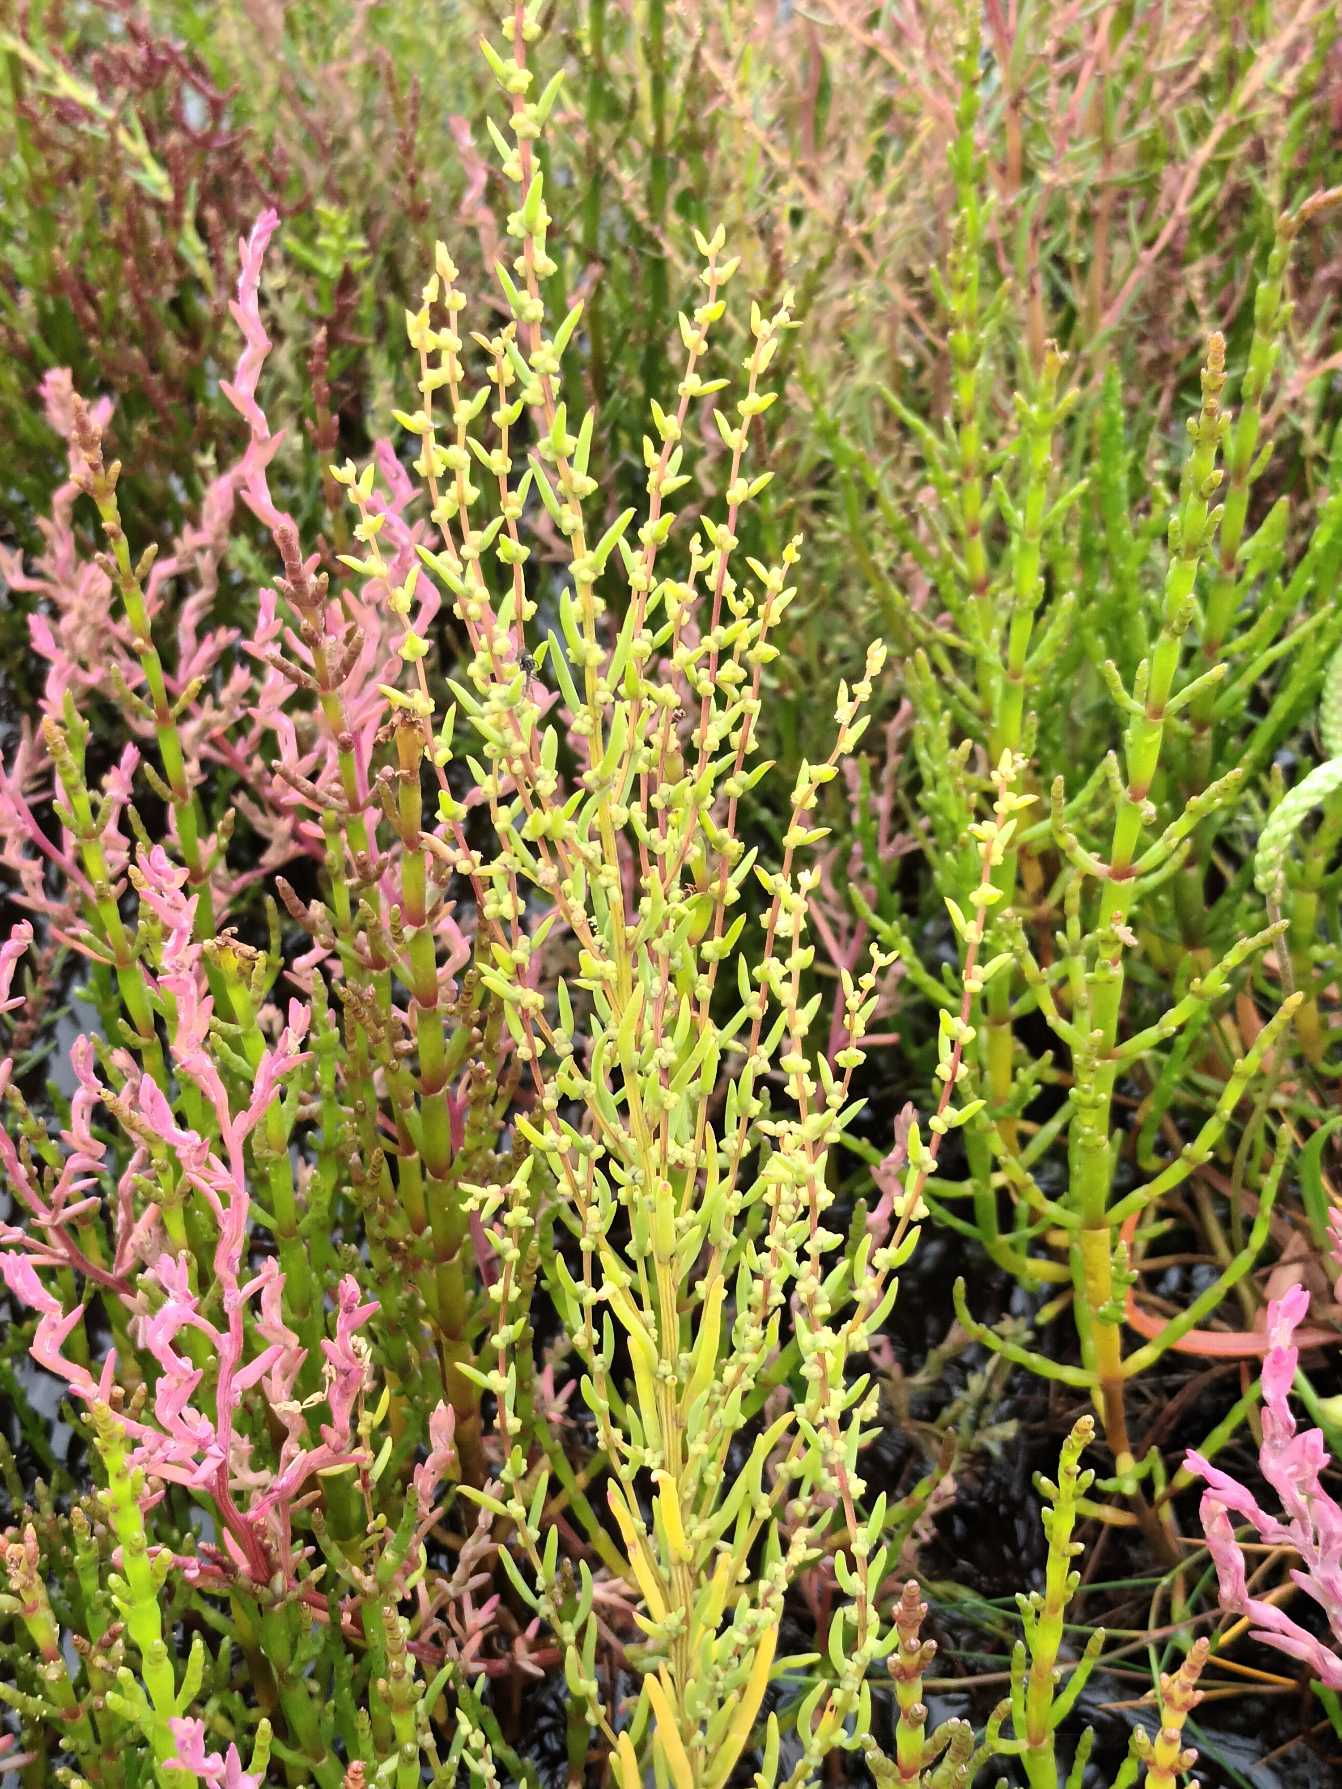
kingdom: Plantae
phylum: Tracheophyta
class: Magnoliopsida
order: Caryophyllales
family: Amaranthaceae
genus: Suaeda
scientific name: Suaeda maritima
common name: Strandgåsefod
